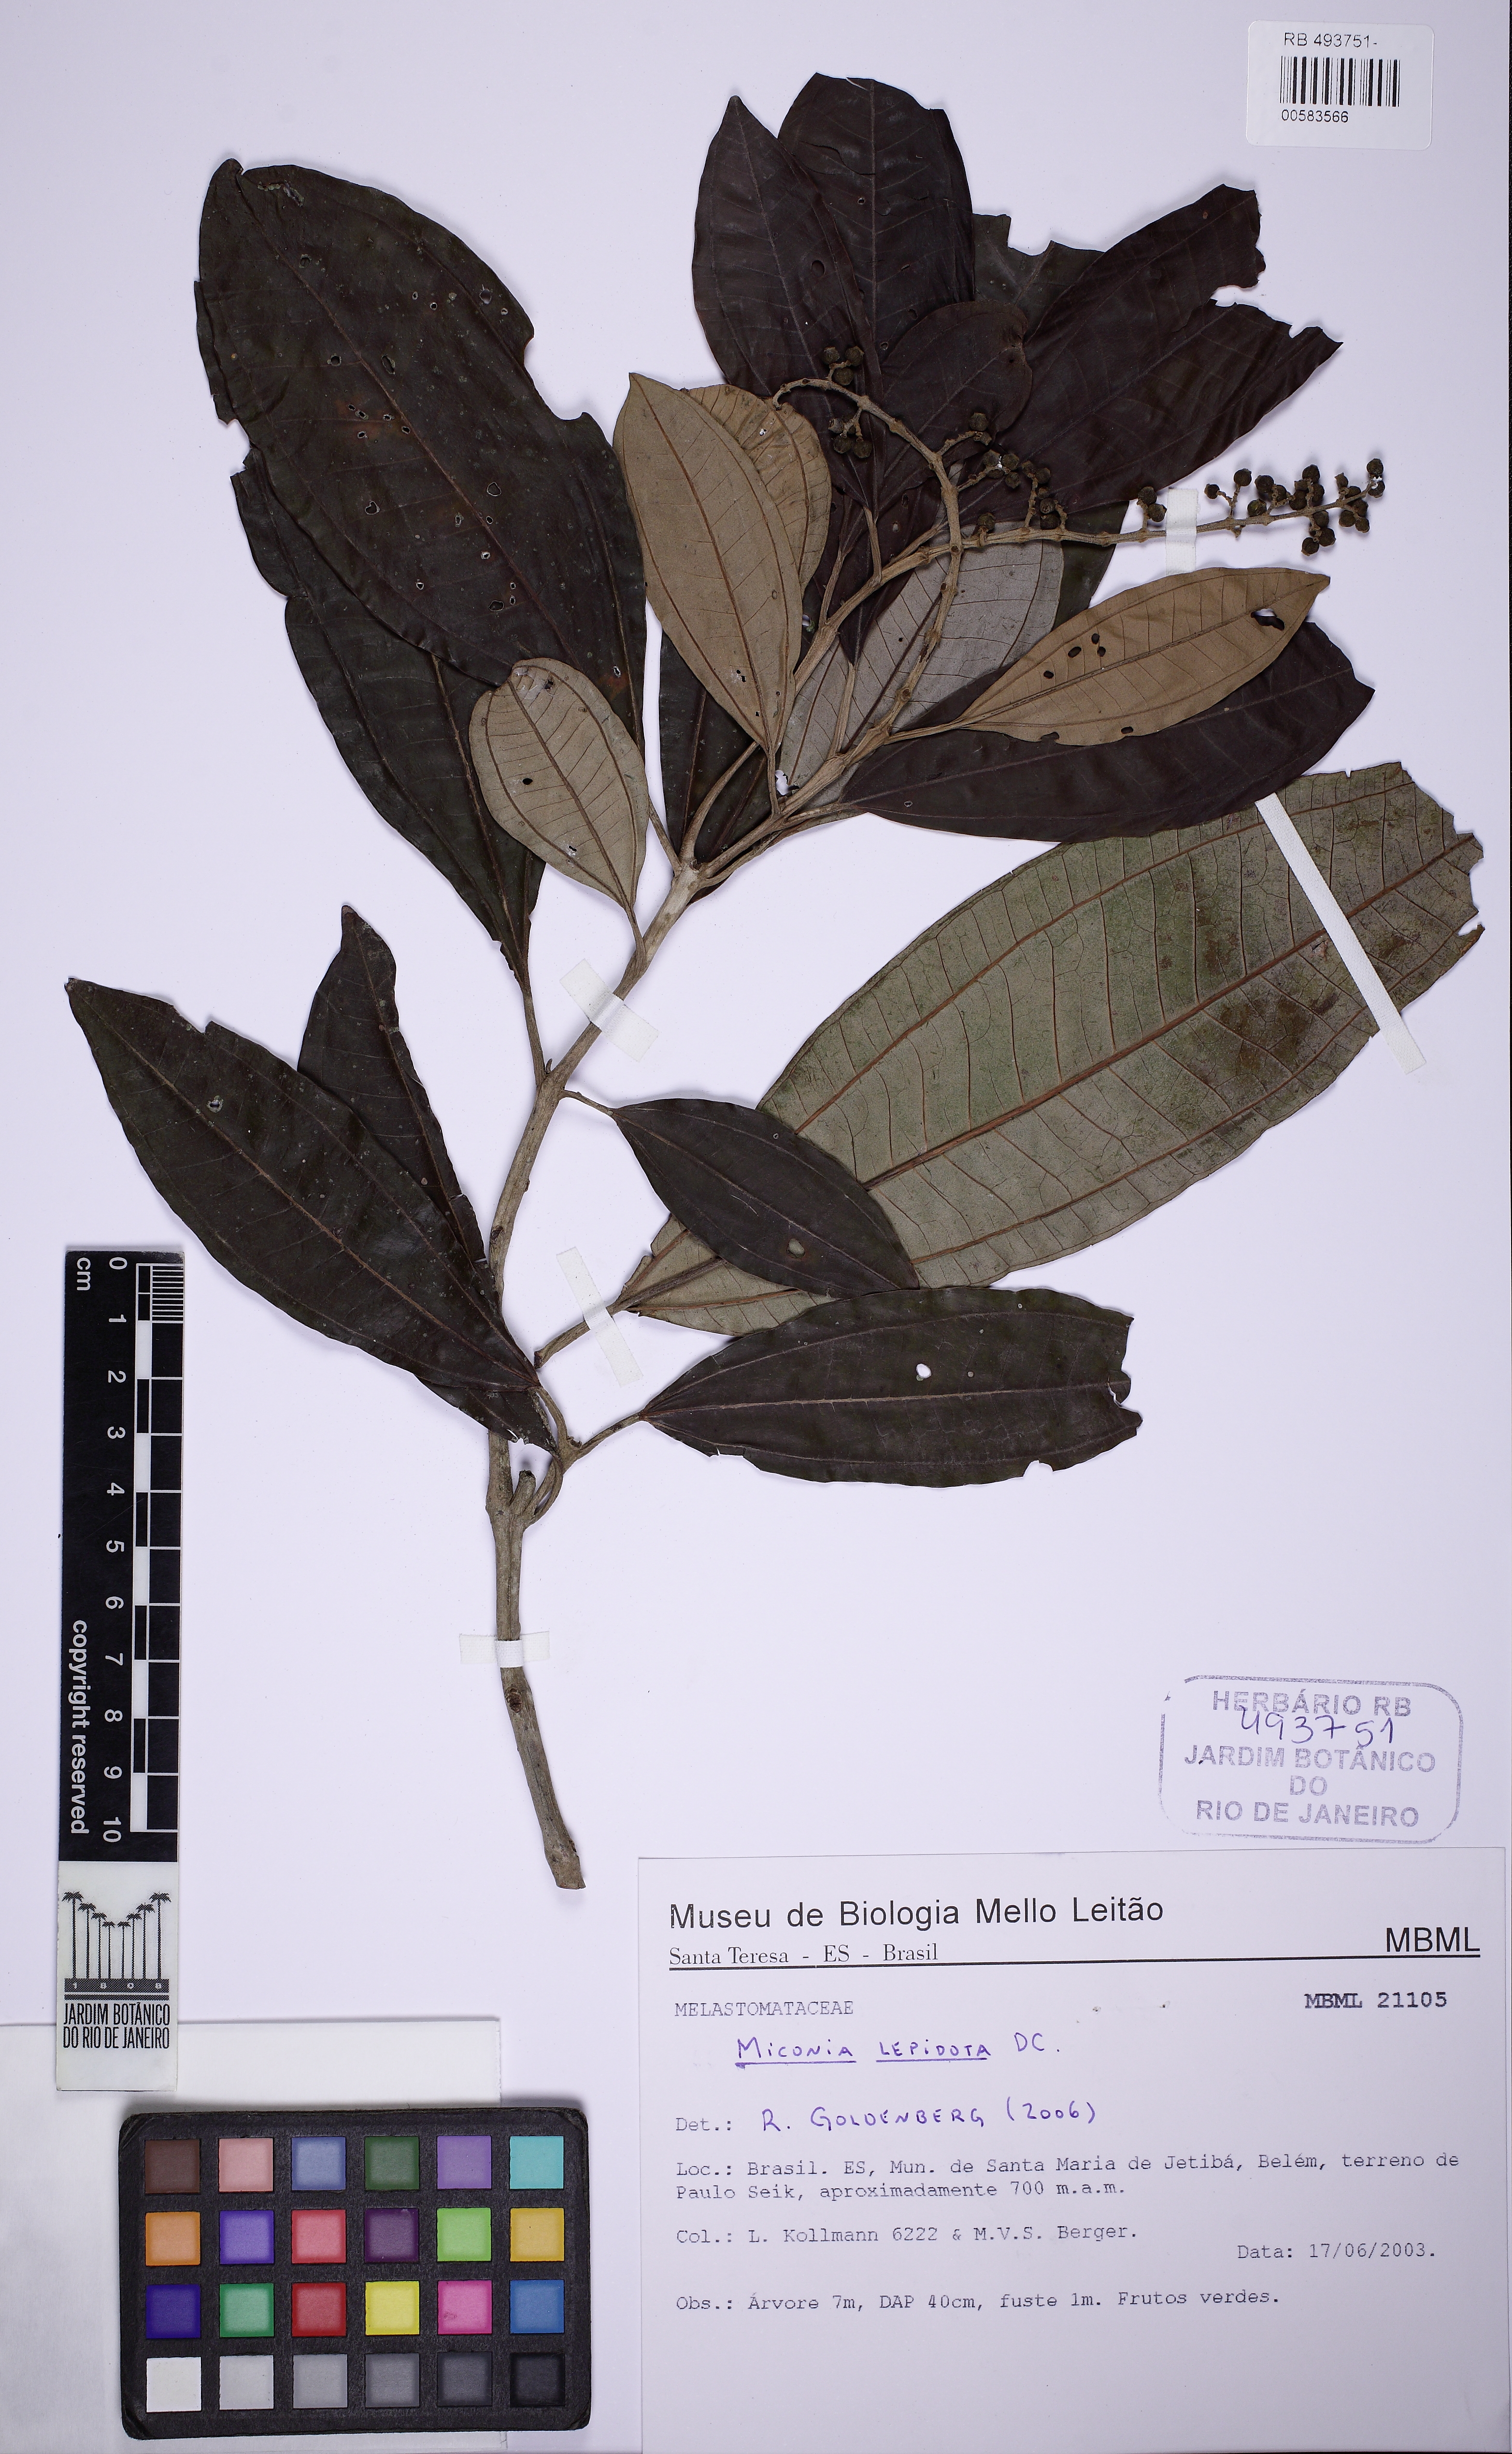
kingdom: Plantae
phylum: Tracheophyta
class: Magnoliopsida
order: Myrtales
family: Melastomataceae
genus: Miconia
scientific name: Miconia lepidota
